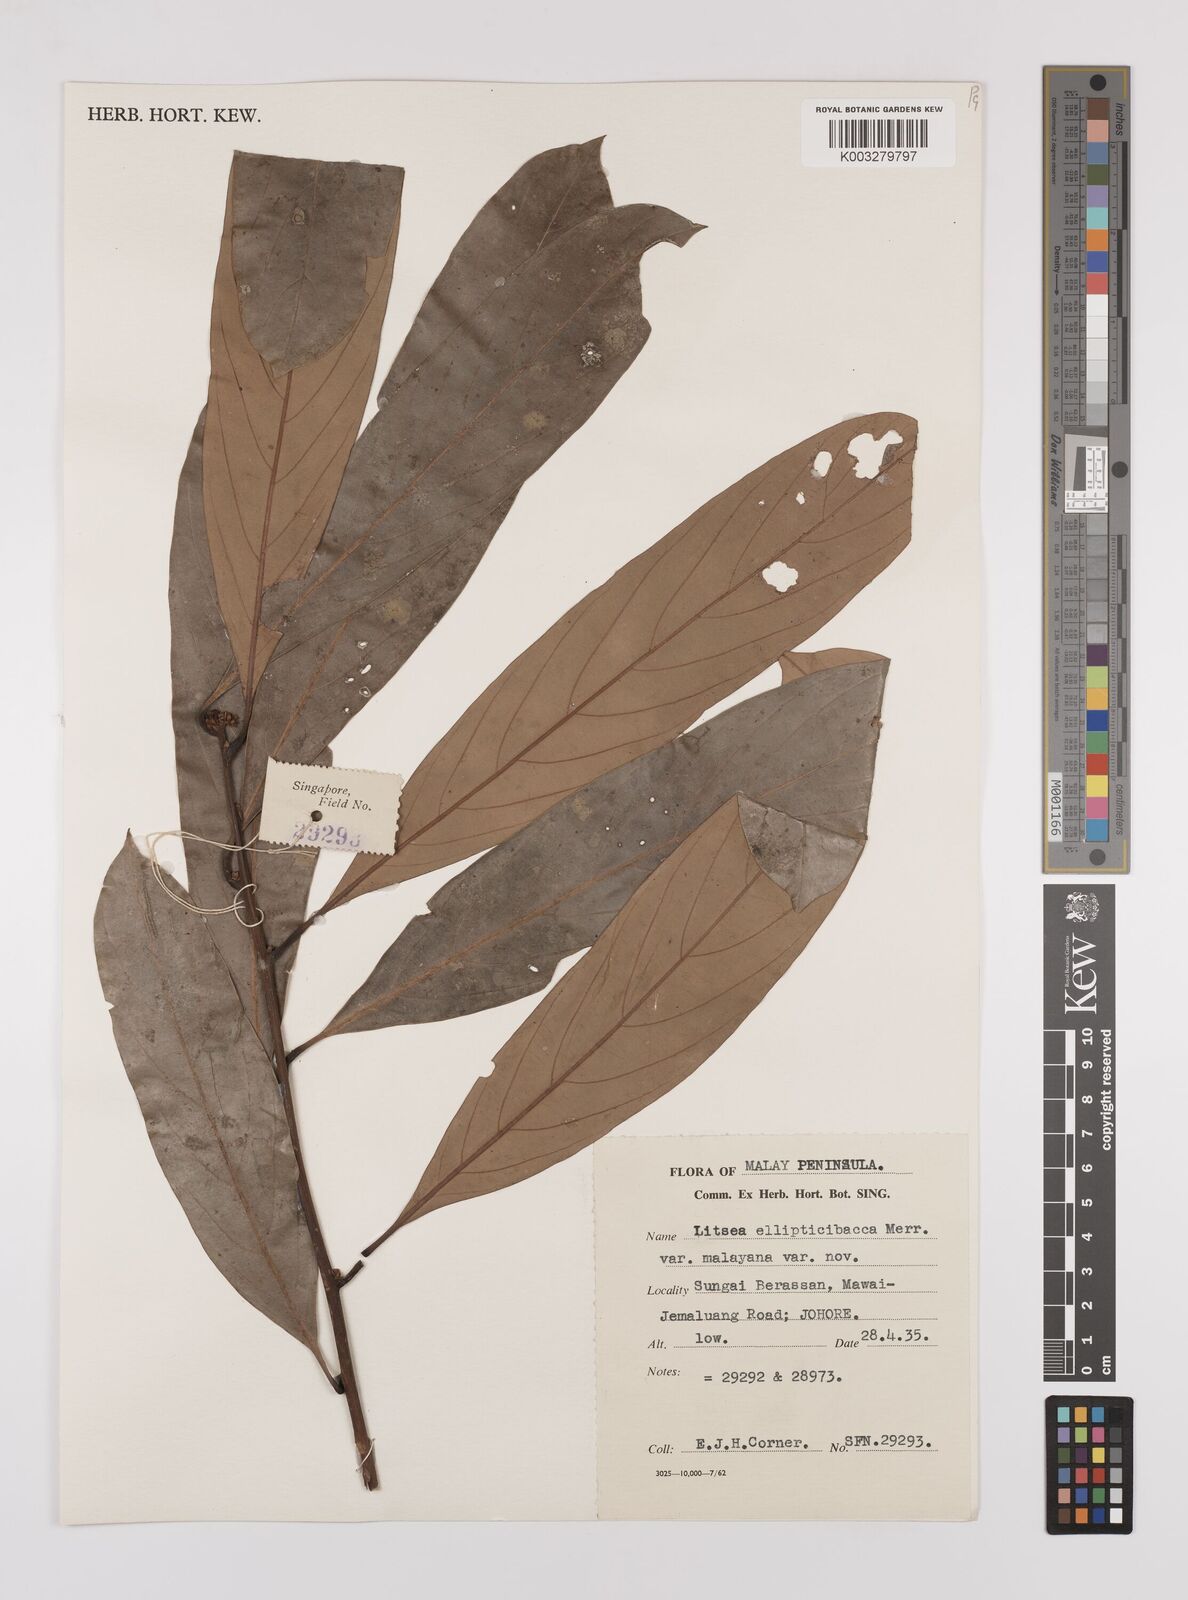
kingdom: Plantae
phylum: Tracheophyta
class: Magnoliopsida
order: Laurales
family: Lauraceae
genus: Litsea
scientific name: Litsea ellipticibacca
